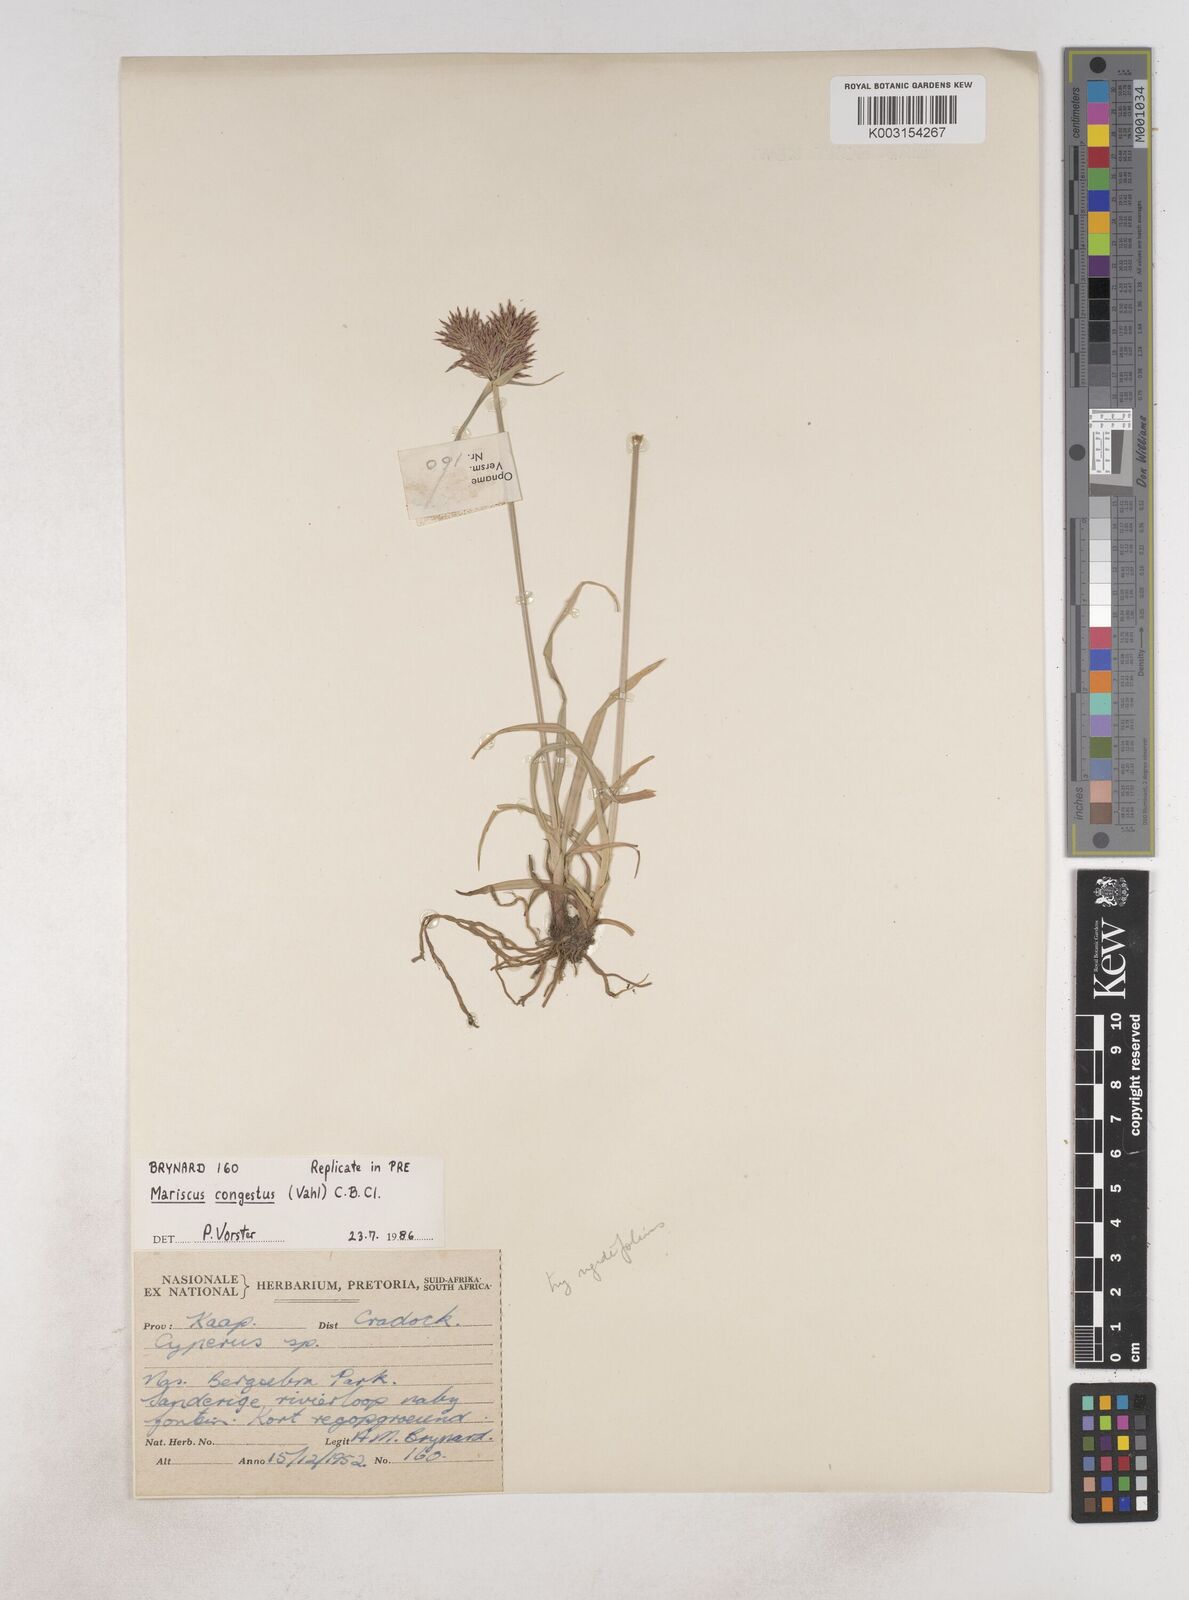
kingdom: Plantae
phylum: Tracheophyta
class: Liliopsida
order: Poales
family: Cyperaceae
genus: Cyperus
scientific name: Cyperus congestus
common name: Dense flat sedge
